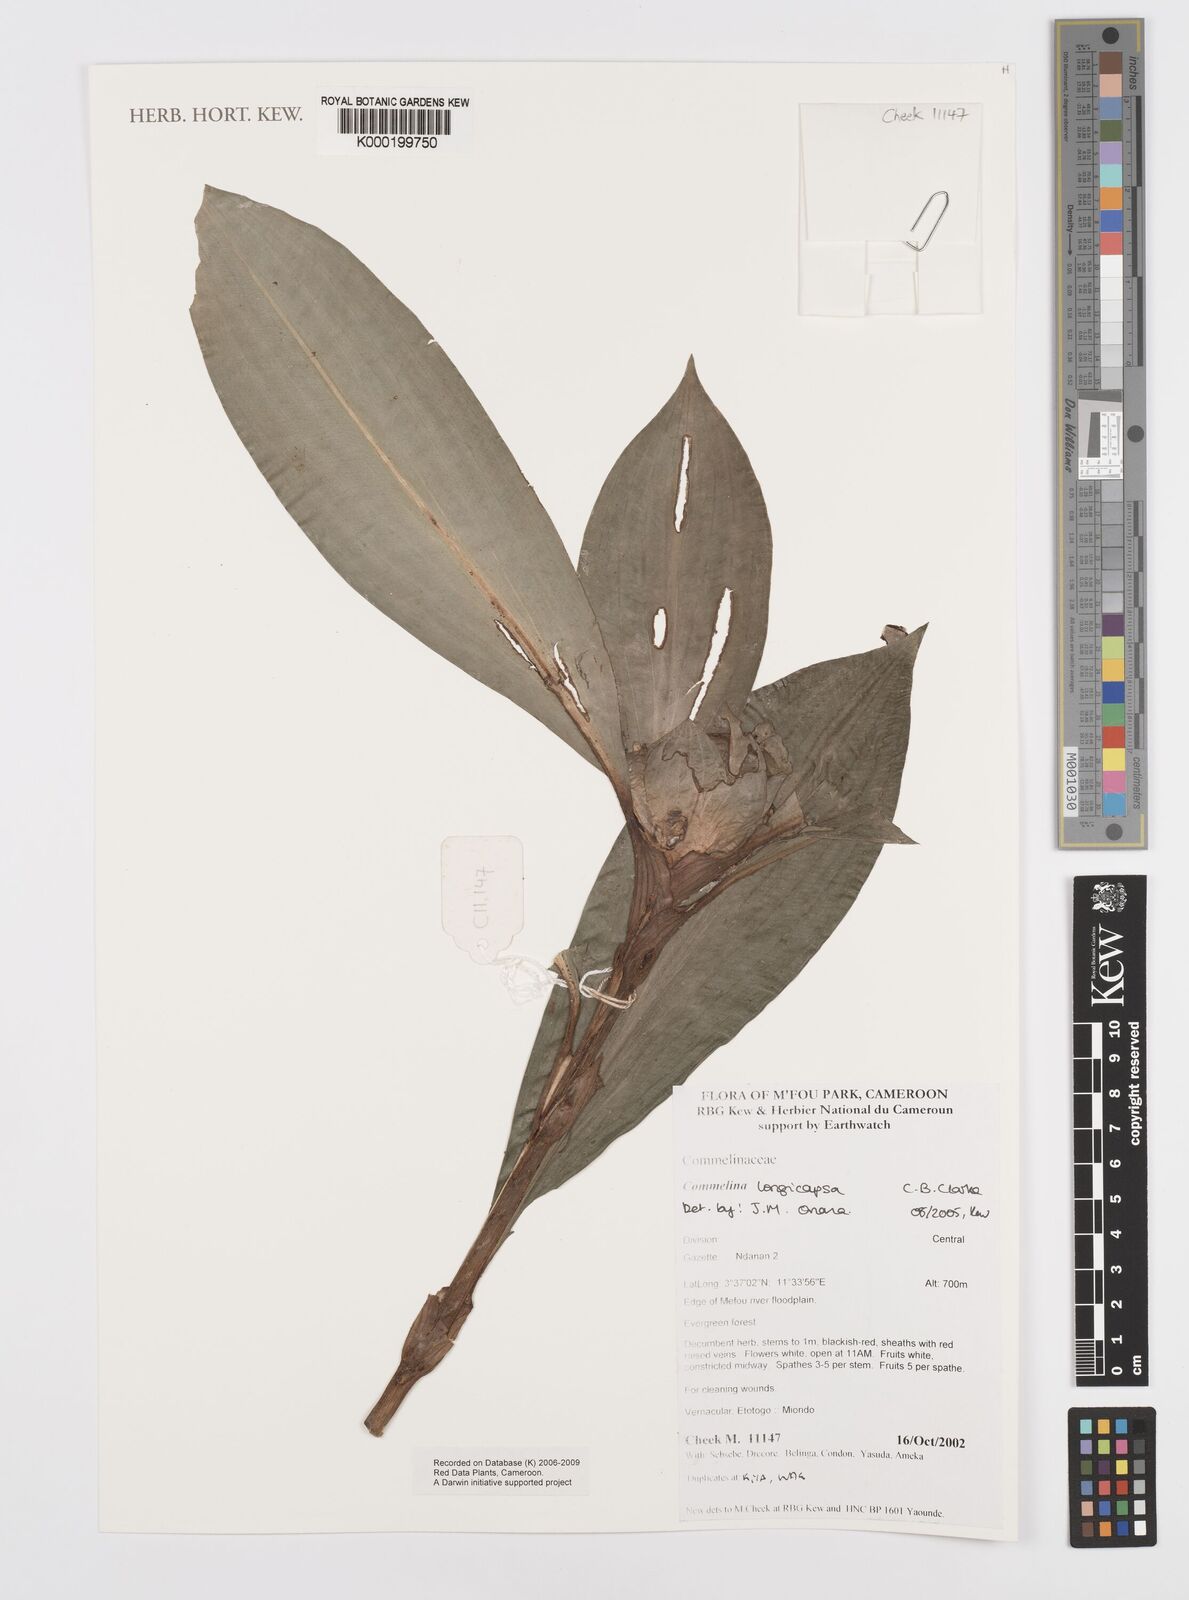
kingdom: Plantae
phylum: Tracheophyta
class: Liliopsida
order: Commelinales
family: Commelinaceae
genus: Commelina
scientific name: Commelina longicapsa
